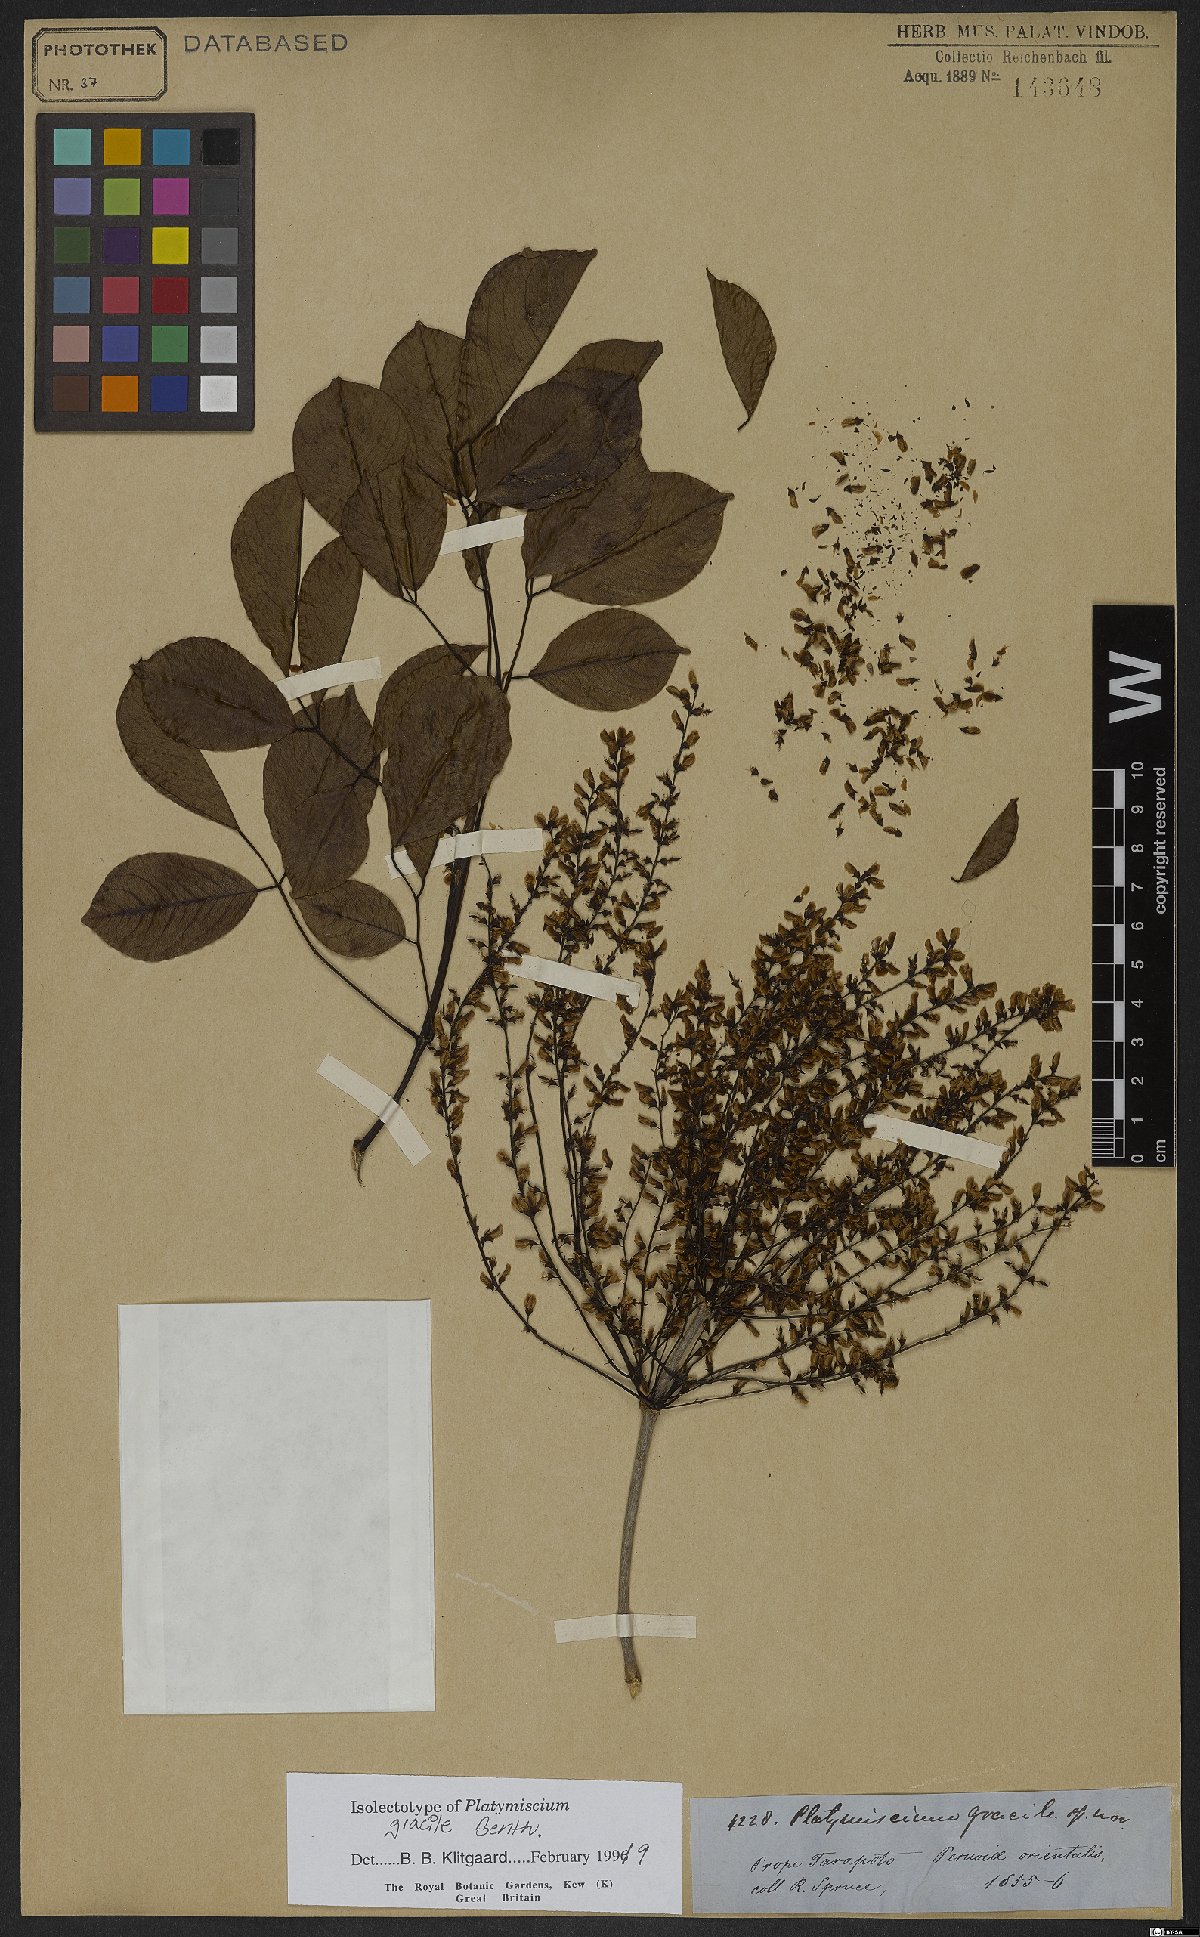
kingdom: Plantae
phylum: Tracheophyta
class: Magnoliopsida
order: Fabales
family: Fabaceae
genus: Platymiscium
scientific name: Platymiscium gracile
